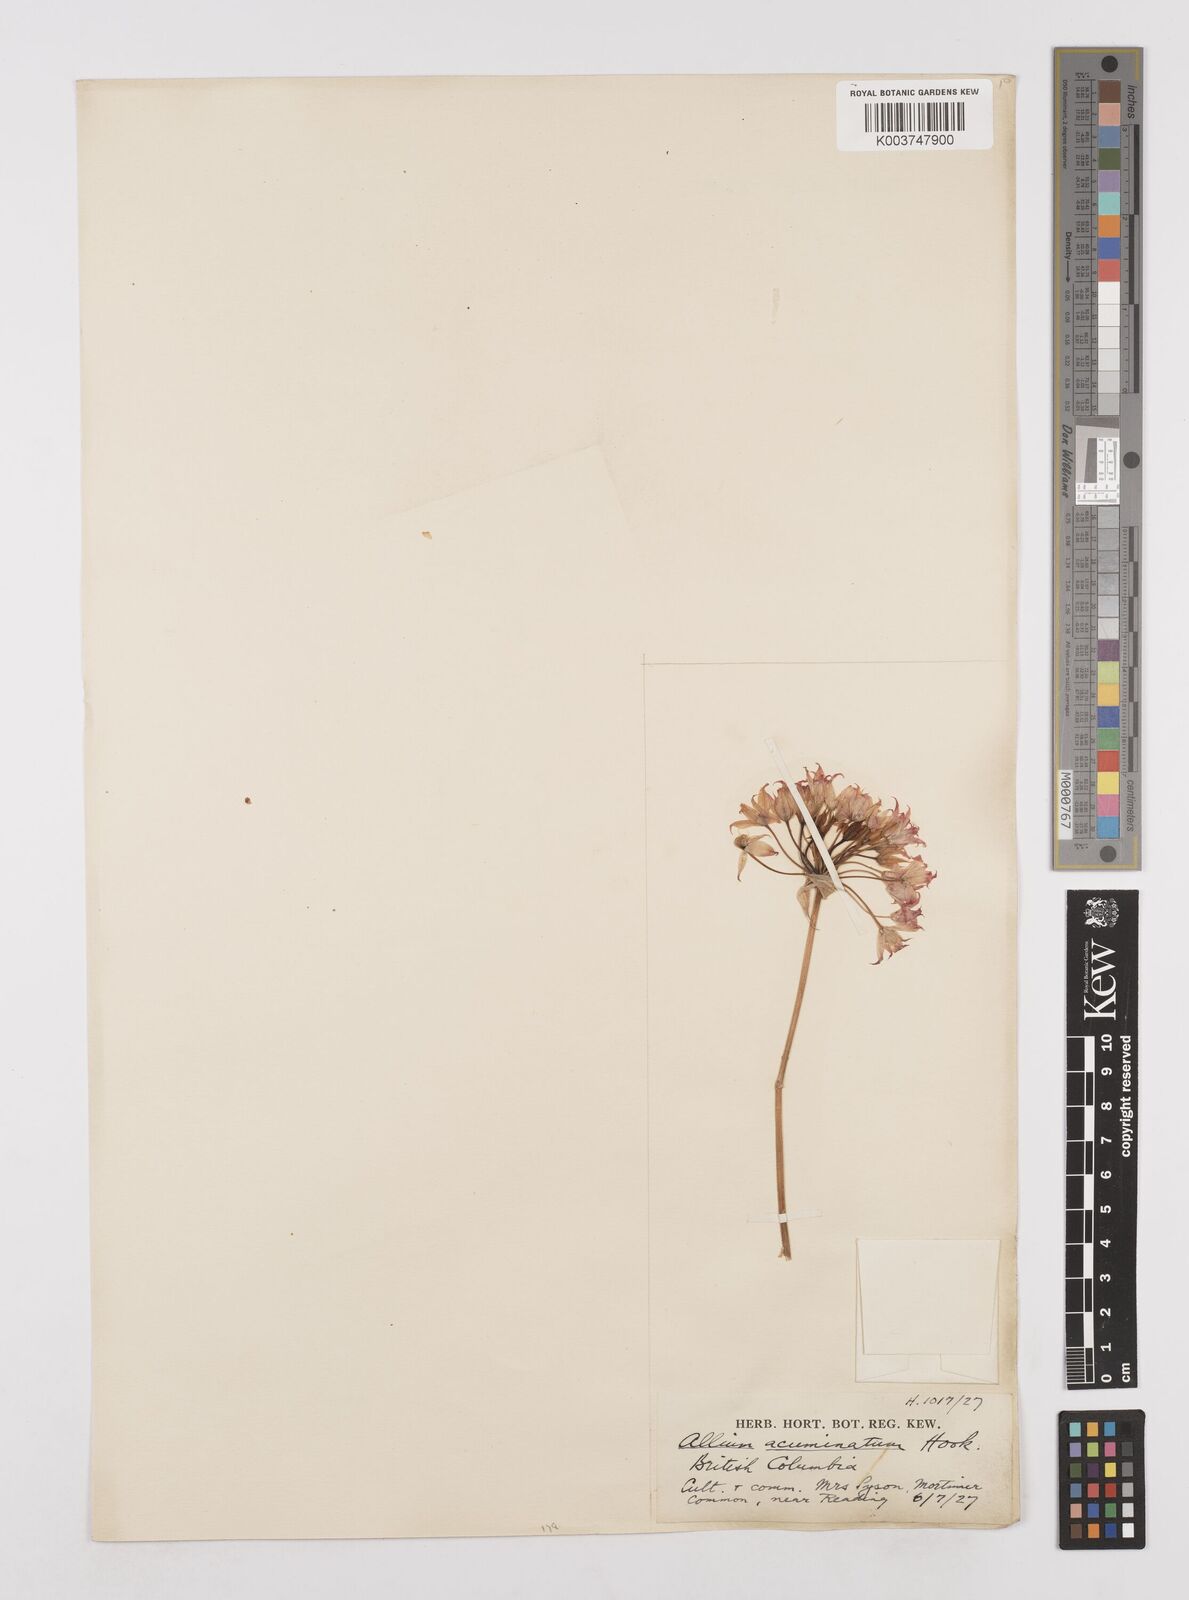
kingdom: Plantae
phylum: Tracheophyta
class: Liliopsida
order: Asparagales
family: Amaryllidaceae
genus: Allium
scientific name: Allium acuminatum
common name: Hooker's onion
